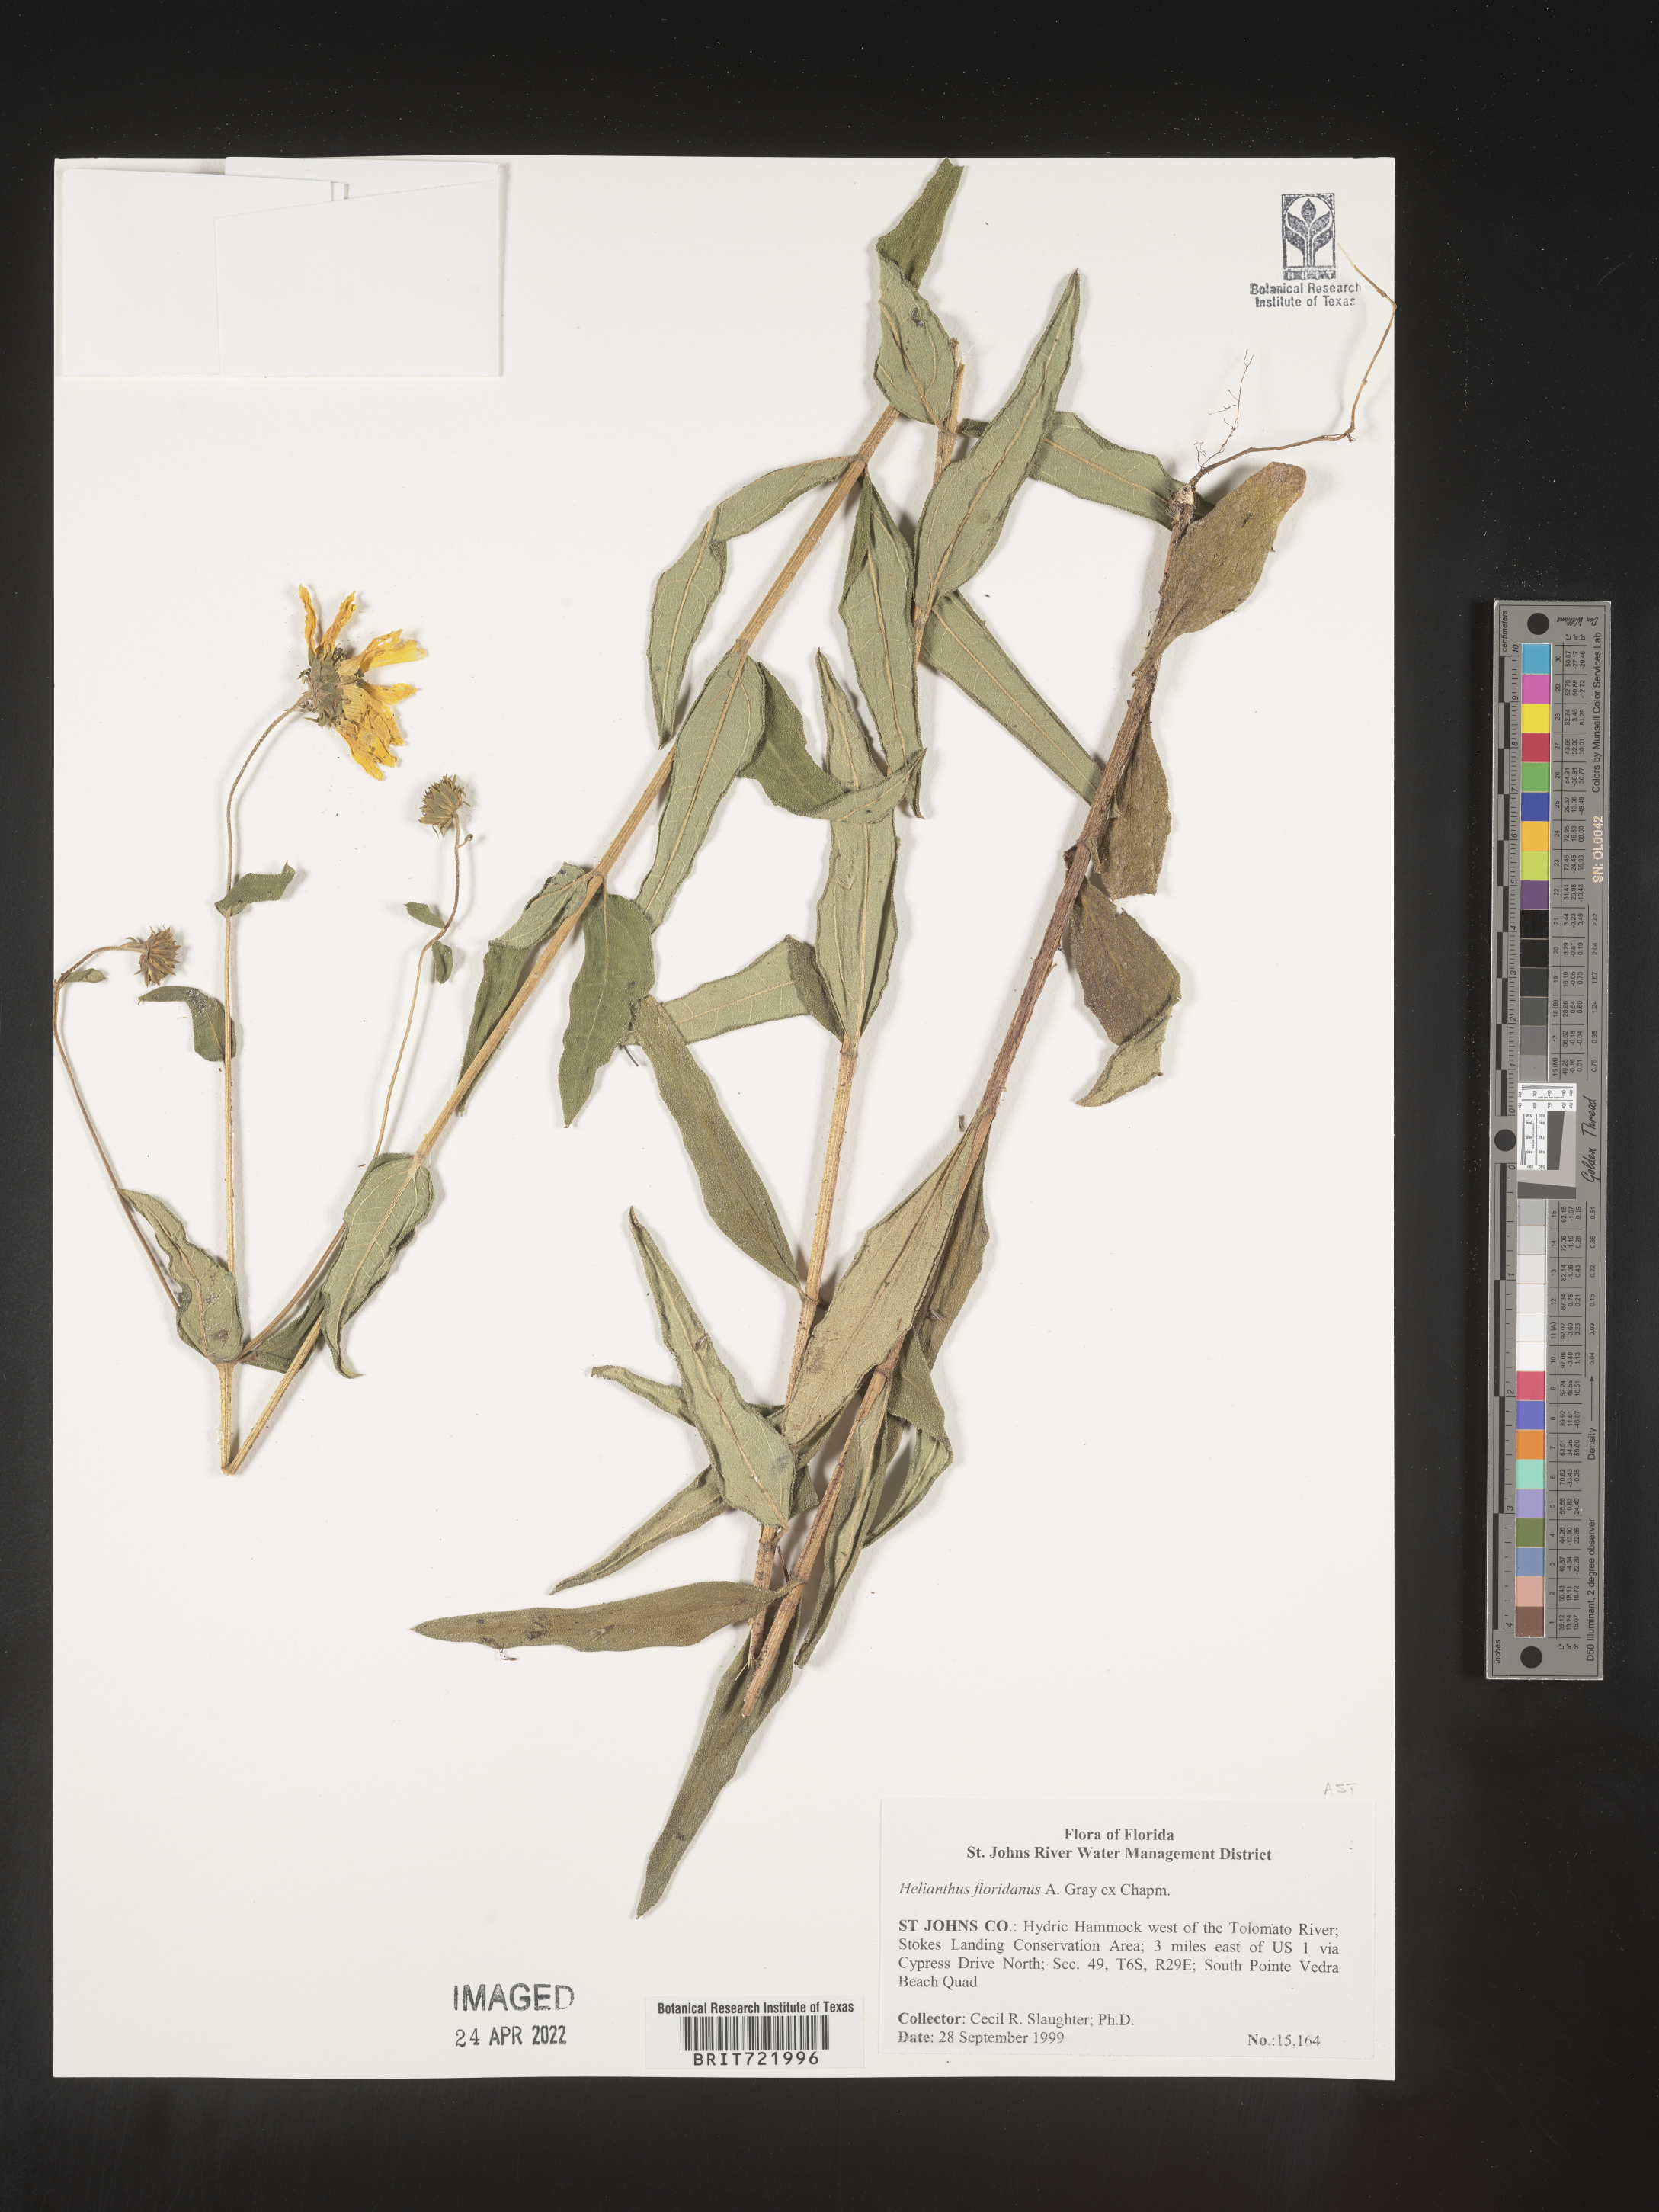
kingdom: Plantae
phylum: Tracheophyta
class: Magnoliopsida
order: Asterales
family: Asteraceae
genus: Helianthus
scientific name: Helianthus
